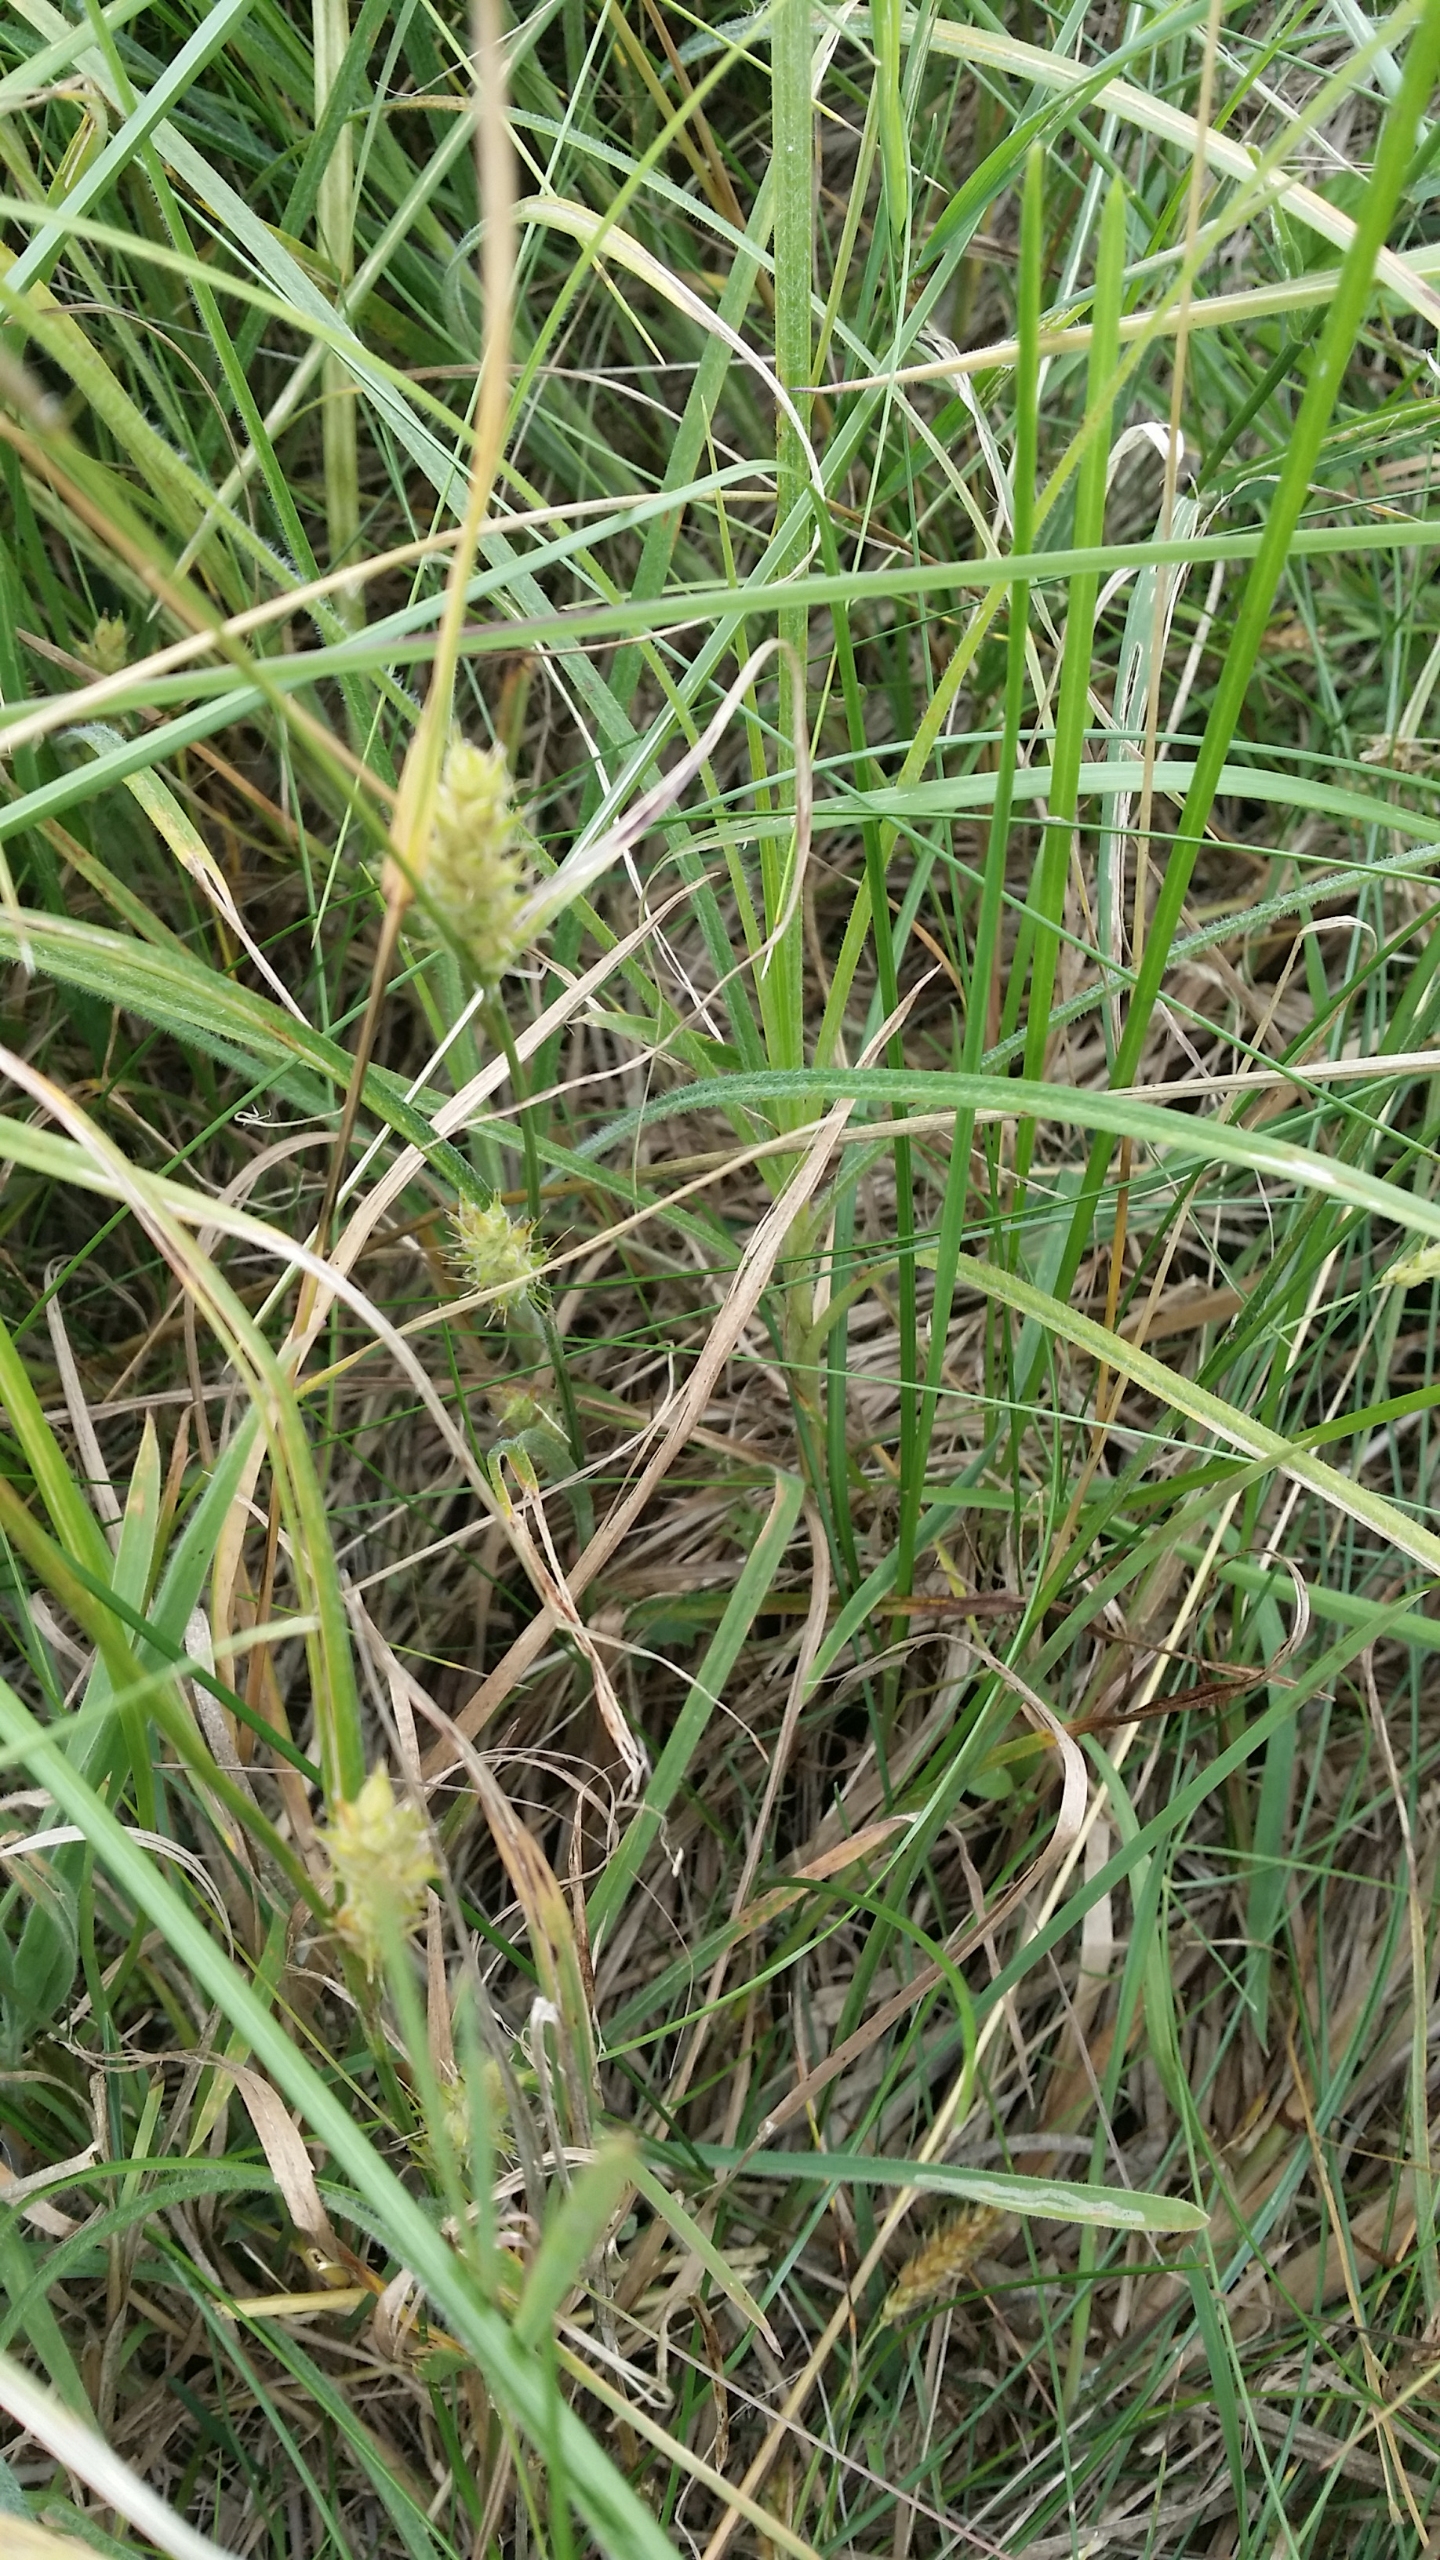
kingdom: Plantae
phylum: Tracheophyta
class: Liliopsida
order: Poales
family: Cyperaceae
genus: Carex
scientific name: Carex hirta
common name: Håret star
